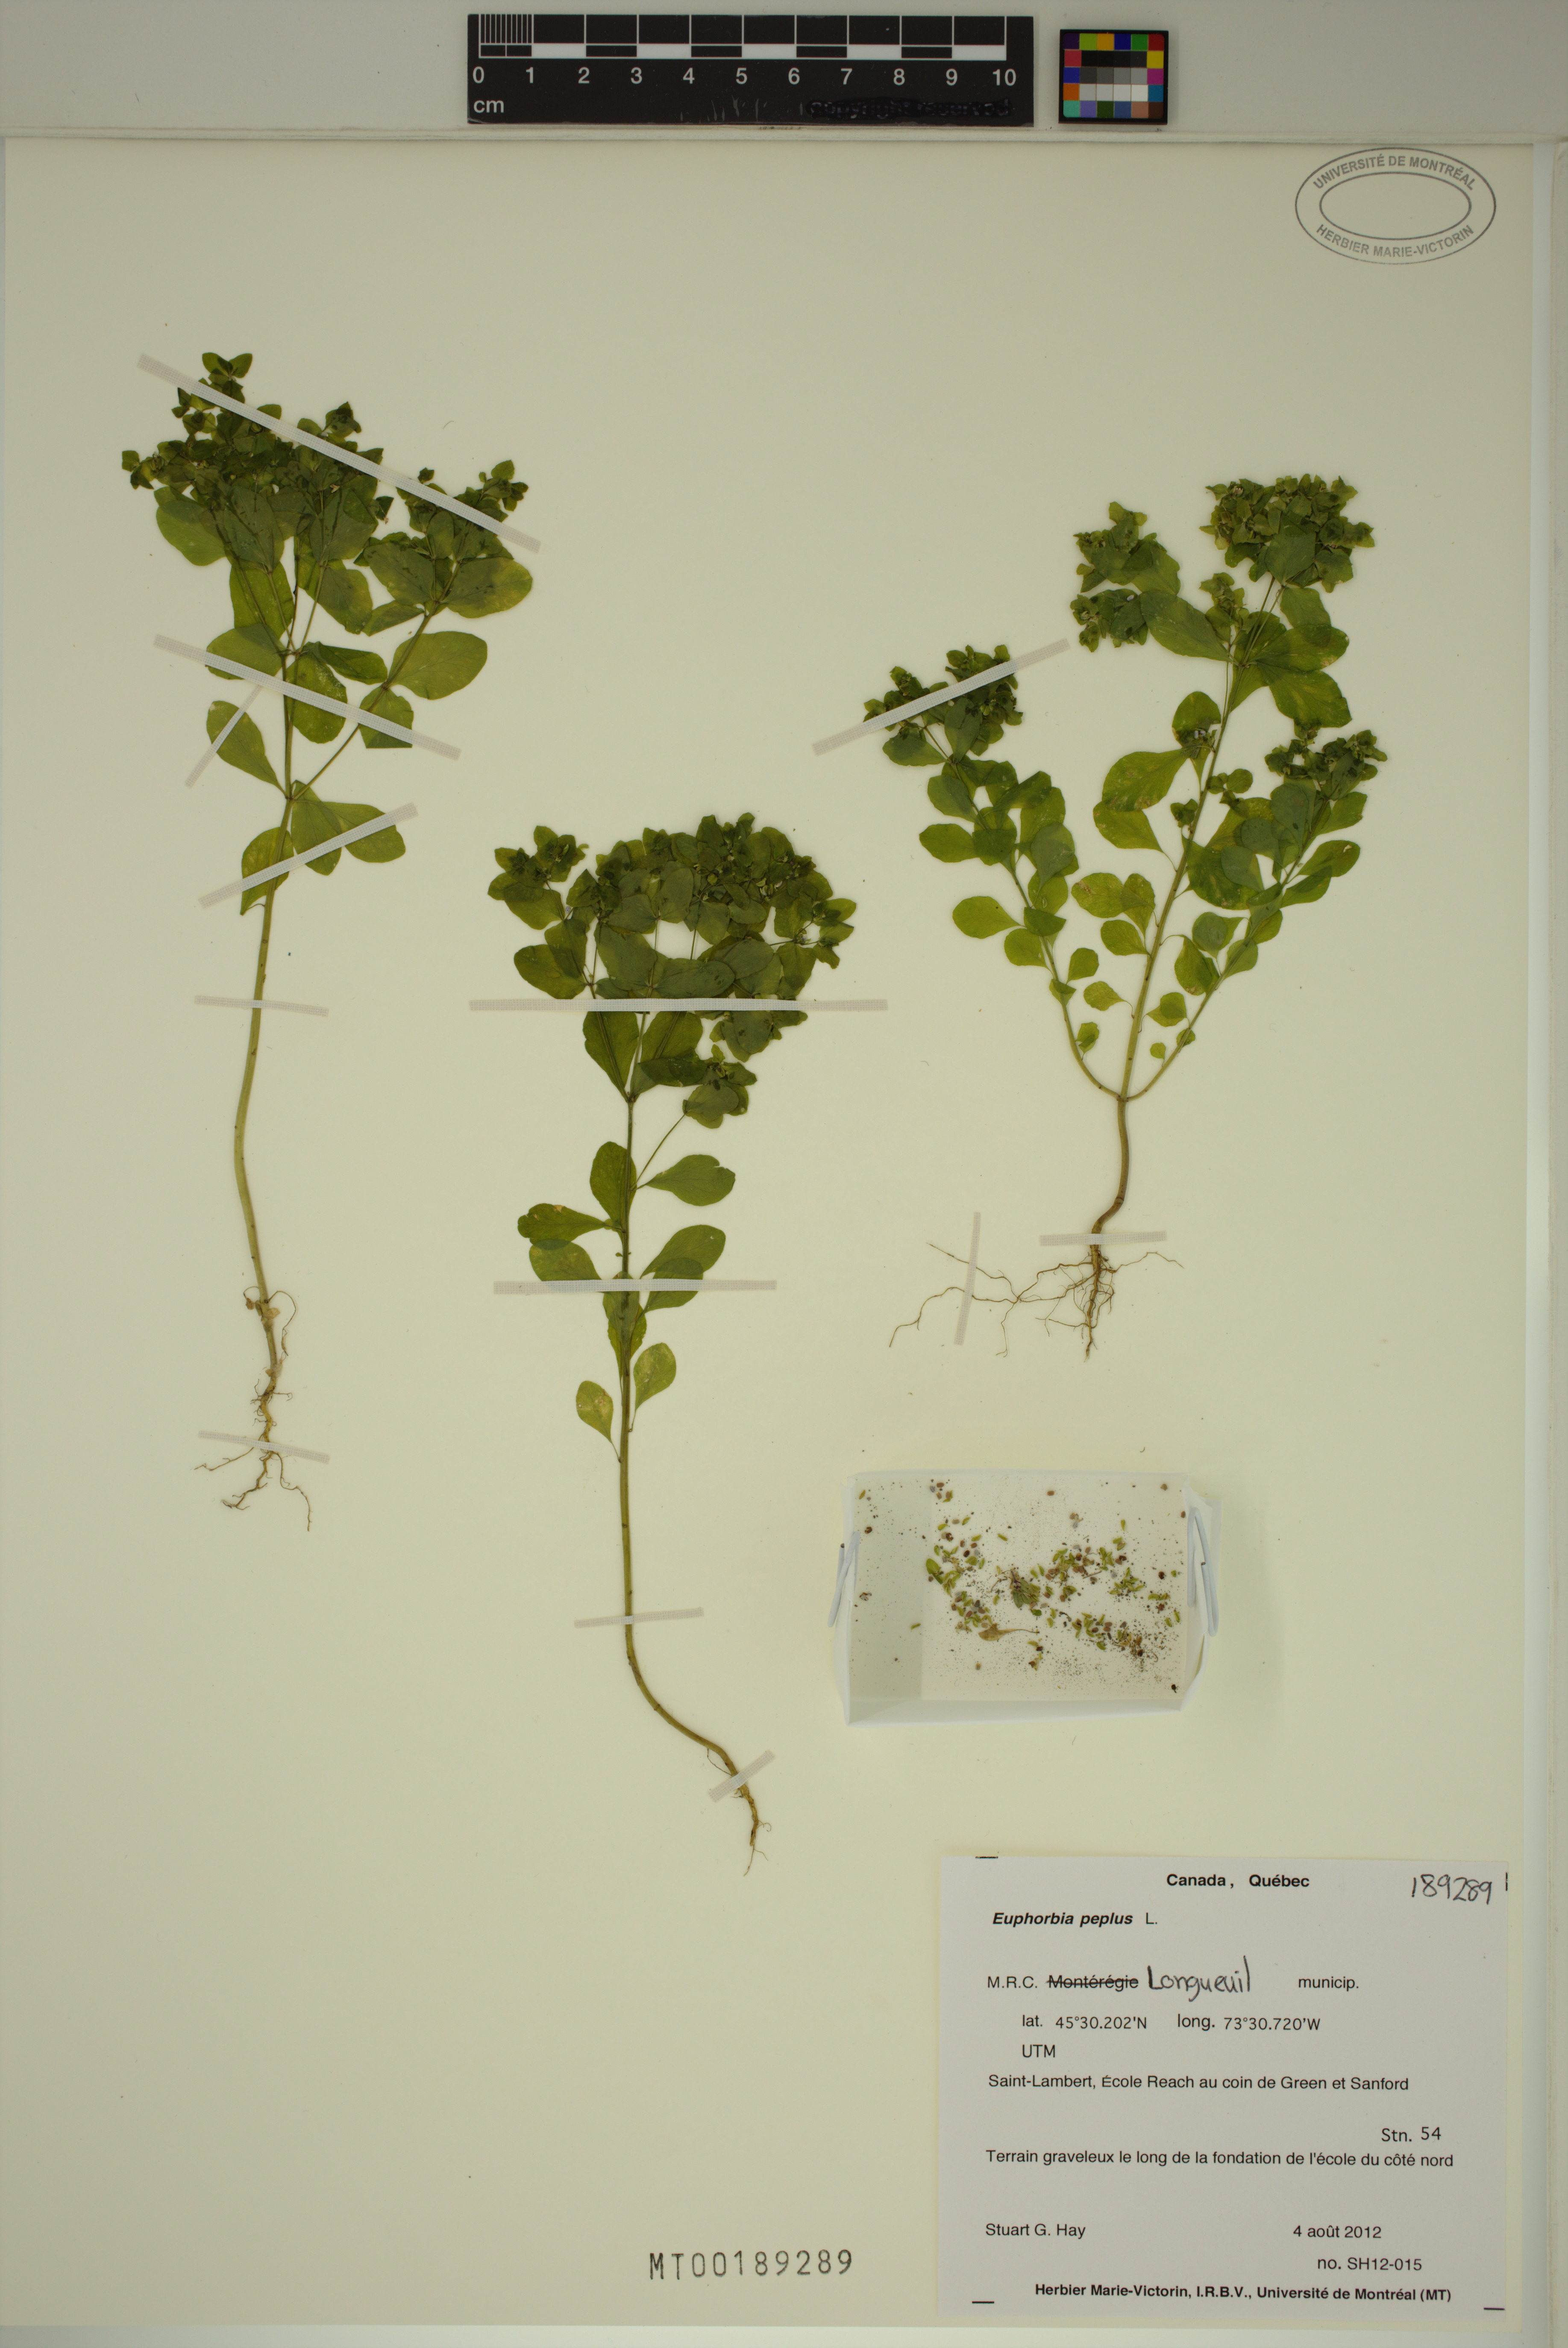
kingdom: Plantae
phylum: Tracheophyta
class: Magnoliopsida
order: Malpighiales
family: Euphorbiaceae
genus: Euphorbia
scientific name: Euphorbia peplus
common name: Petty spurge
